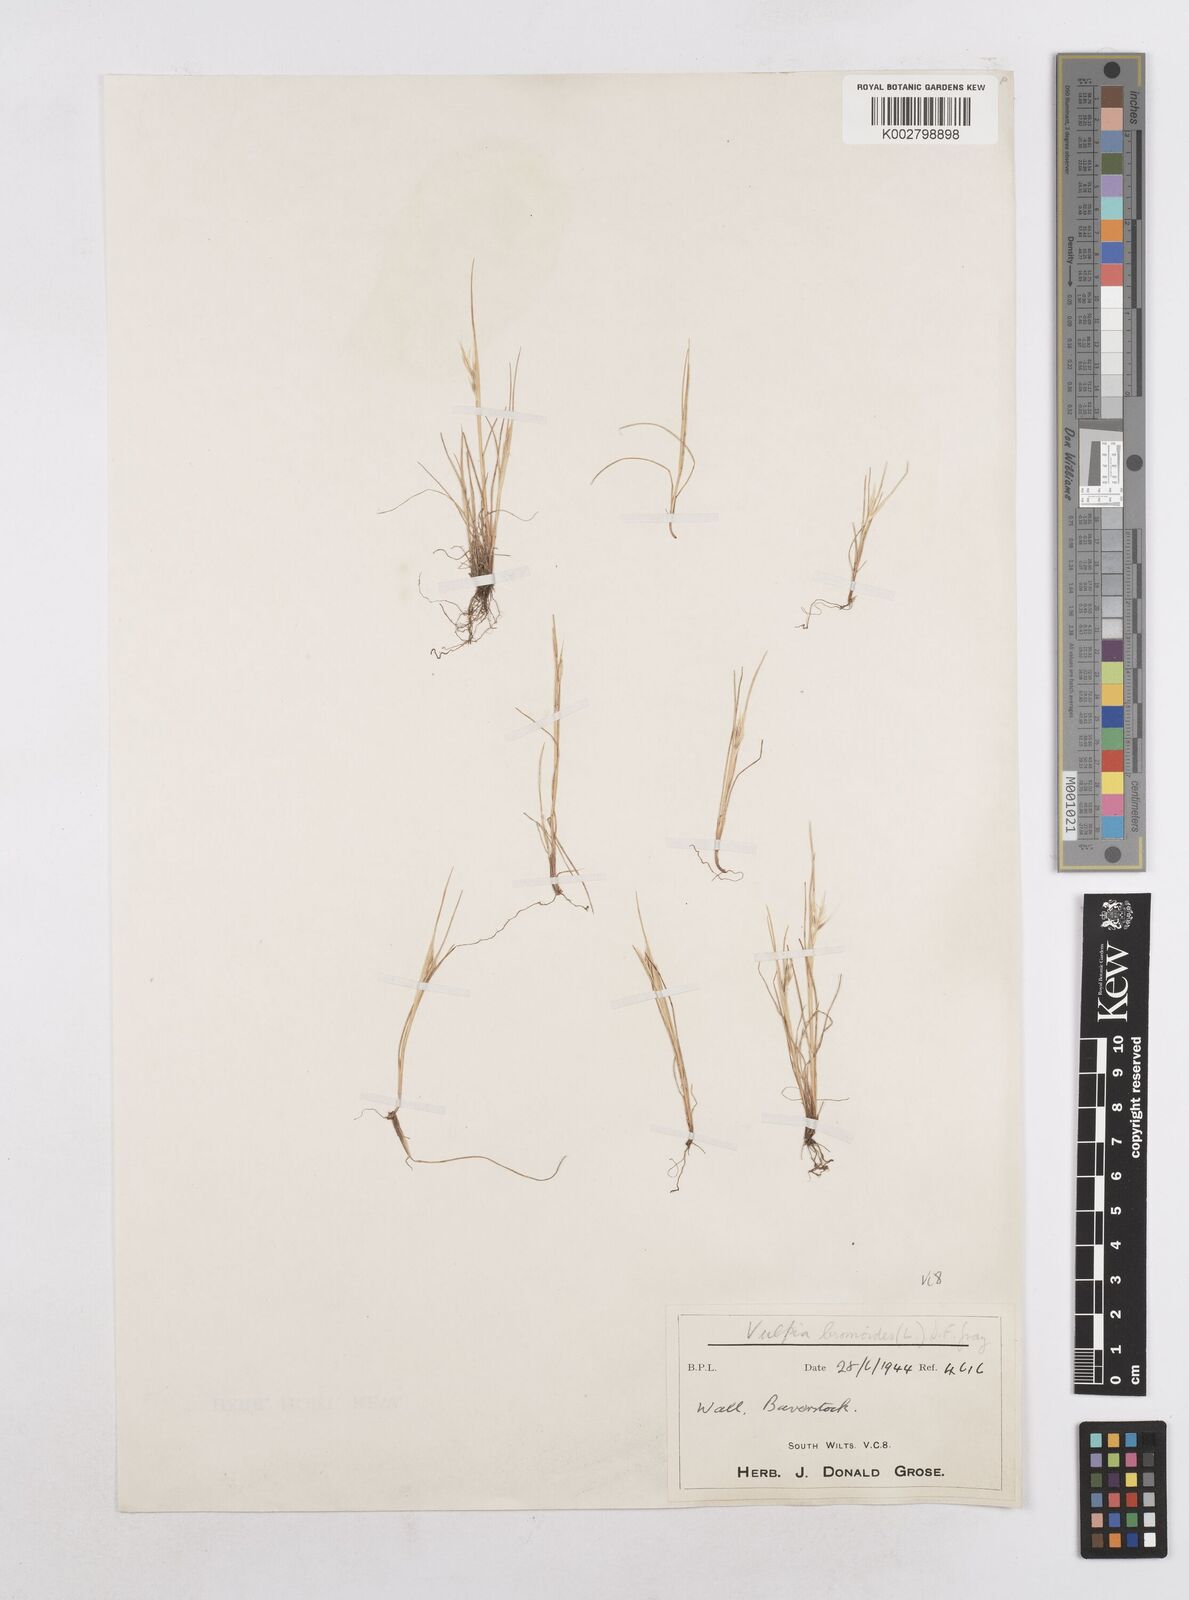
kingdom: Plantae
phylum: Tracheophyta
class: Liliopsida
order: Poales
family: Poaceae
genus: Festuca
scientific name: Festuca bromoides
